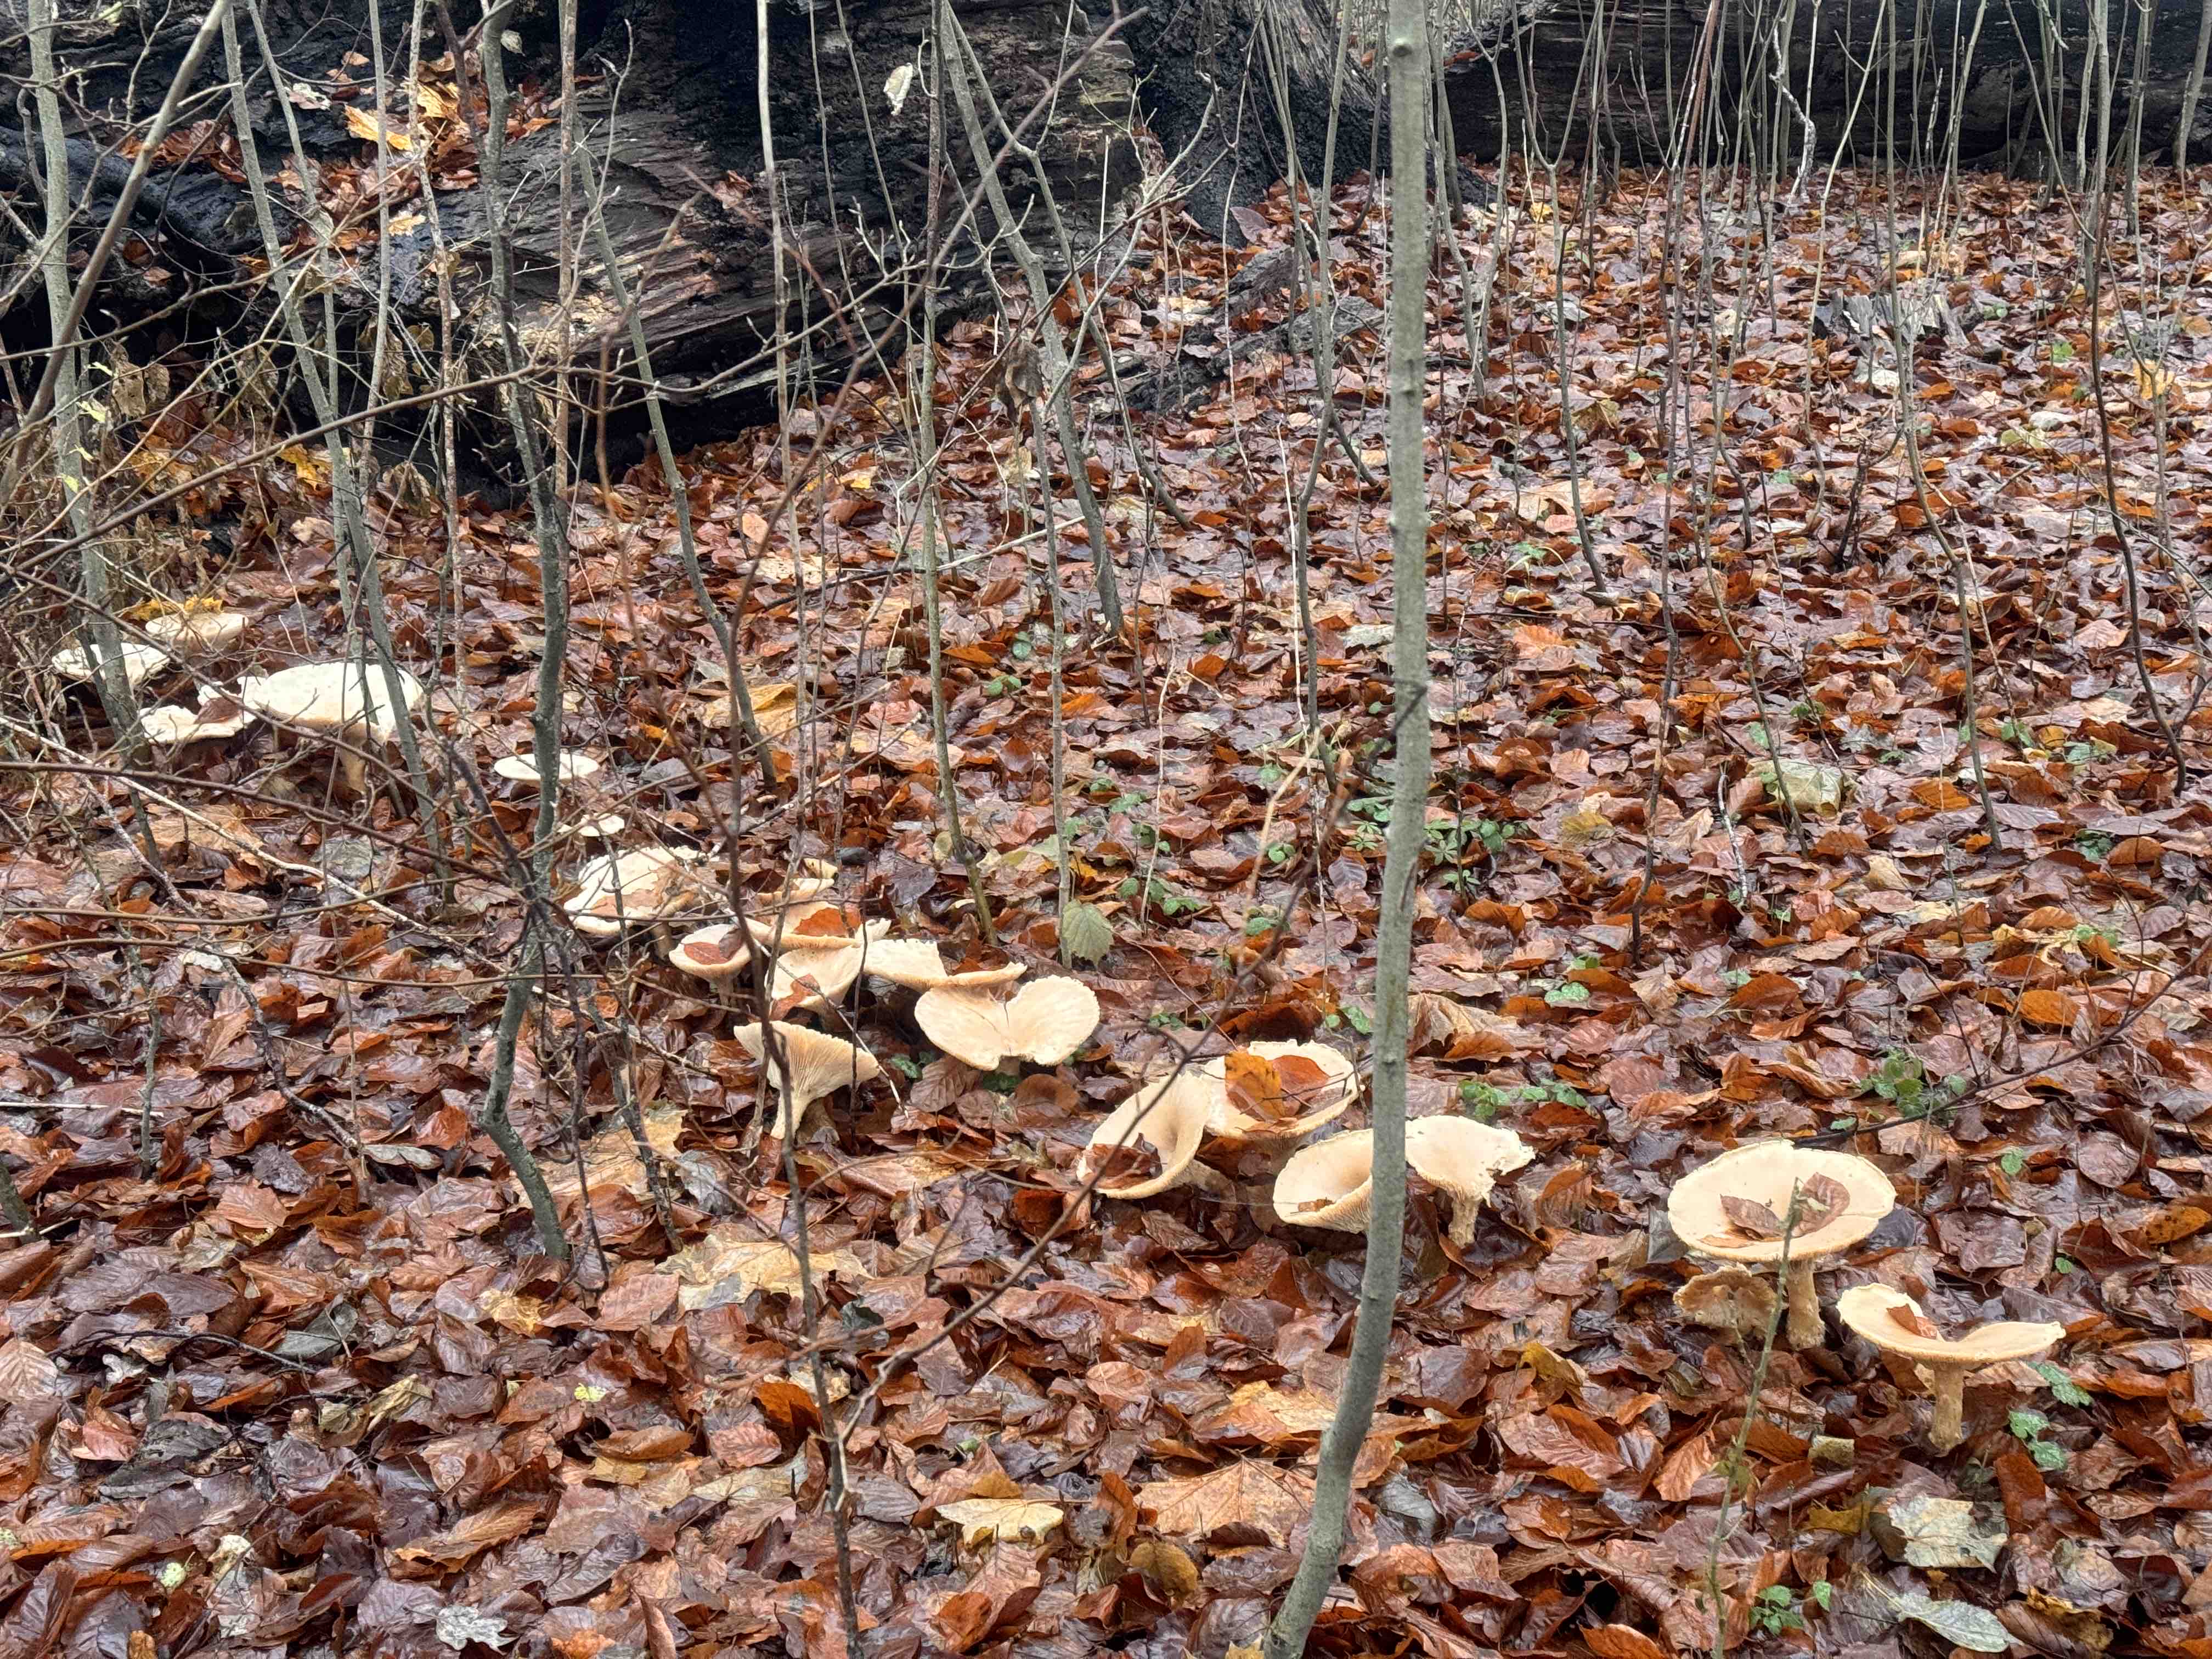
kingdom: Fungi
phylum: Basidiomycota
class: Agaricomycetes
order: Agaricales
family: Tricholomataceae
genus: Infundibulicybe
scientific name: Infundibulicybe geotropa
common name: stor tragthat
